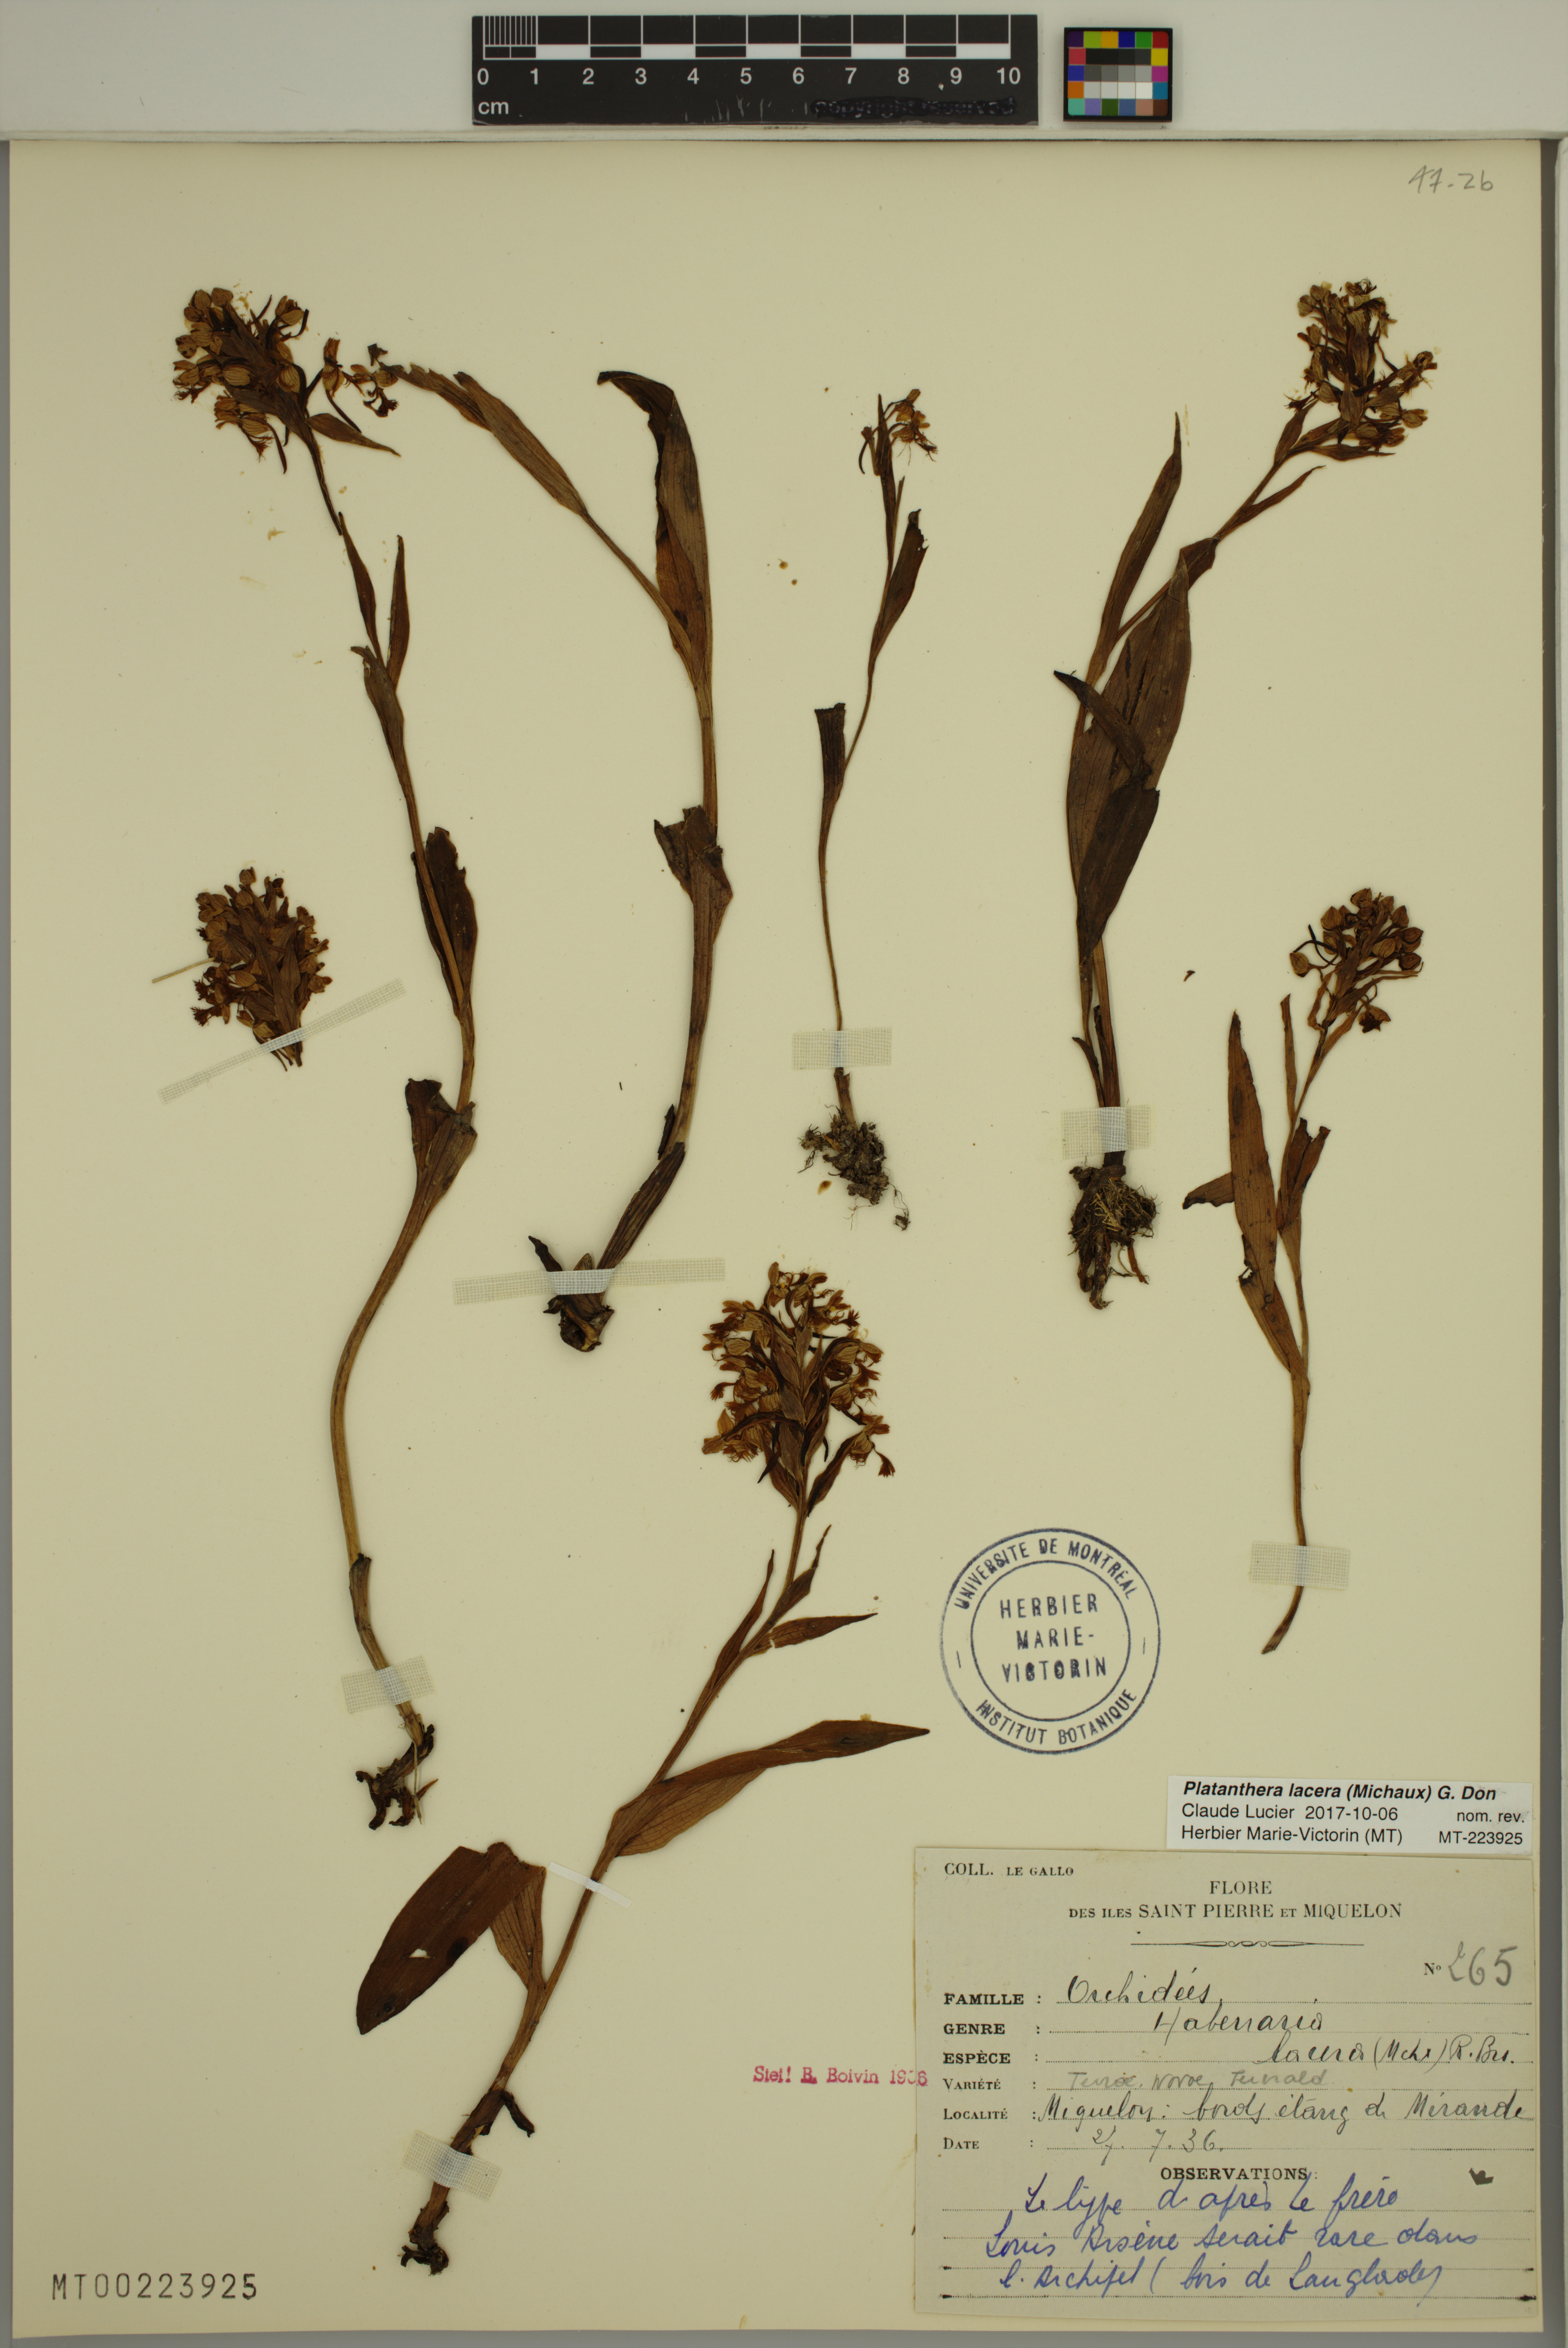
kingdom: Plantae
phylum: Tracheophyta
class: Liliopsida
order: Asparagales
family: Orchidaceae
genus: Platanthera
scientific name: Platanthera lacera
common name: Green fringed orchid
